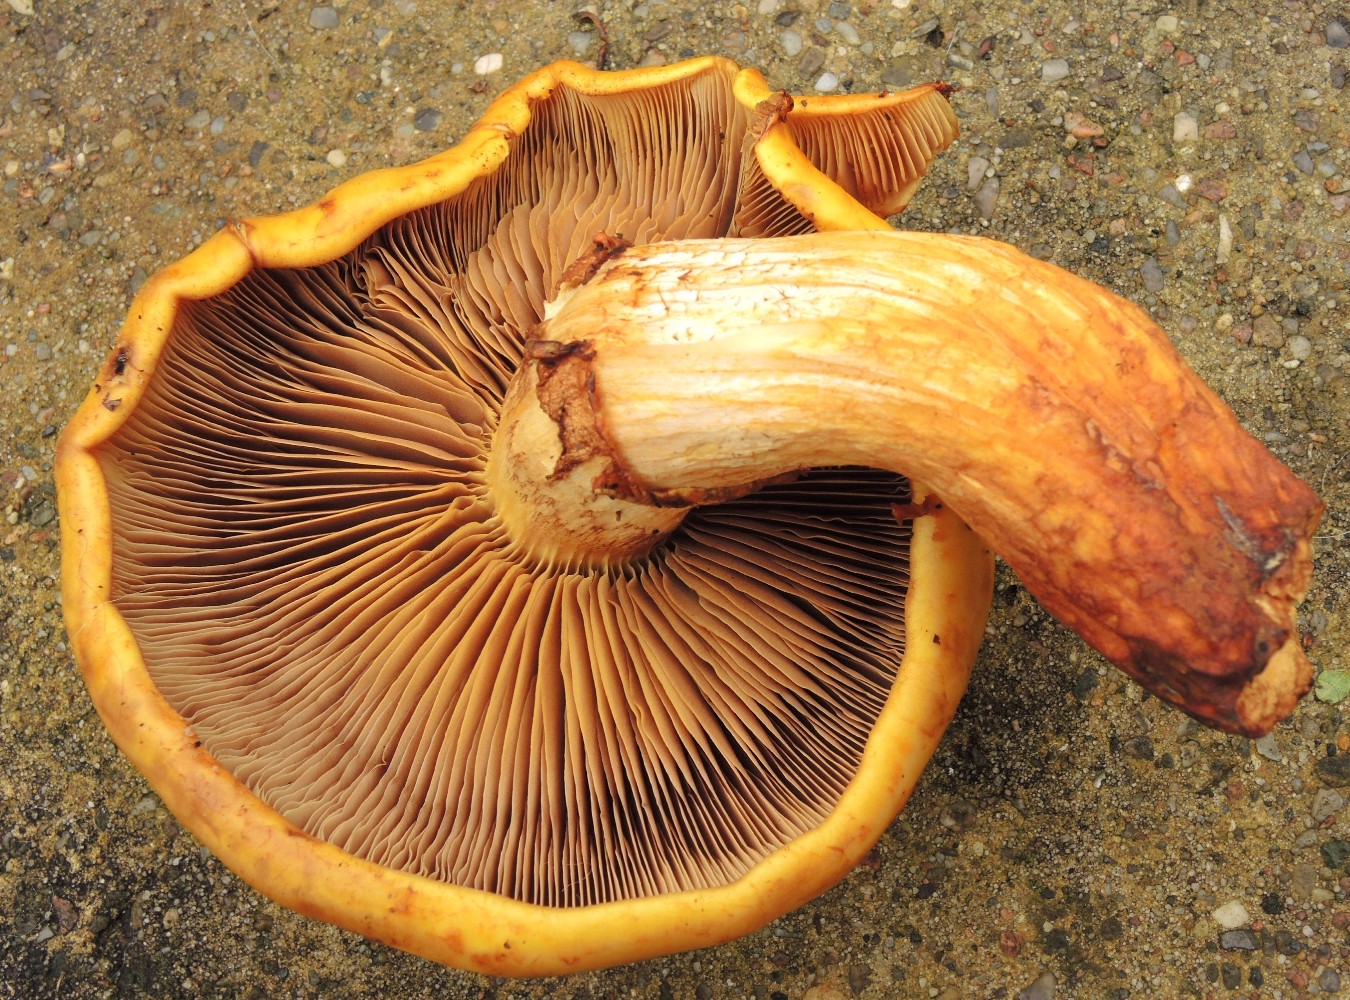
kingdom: Fungi
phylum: Basidiomycota
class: Agaricomycetes
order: Agaricales
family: Strophariaceae
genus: Pholiota
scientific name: Pholiota
